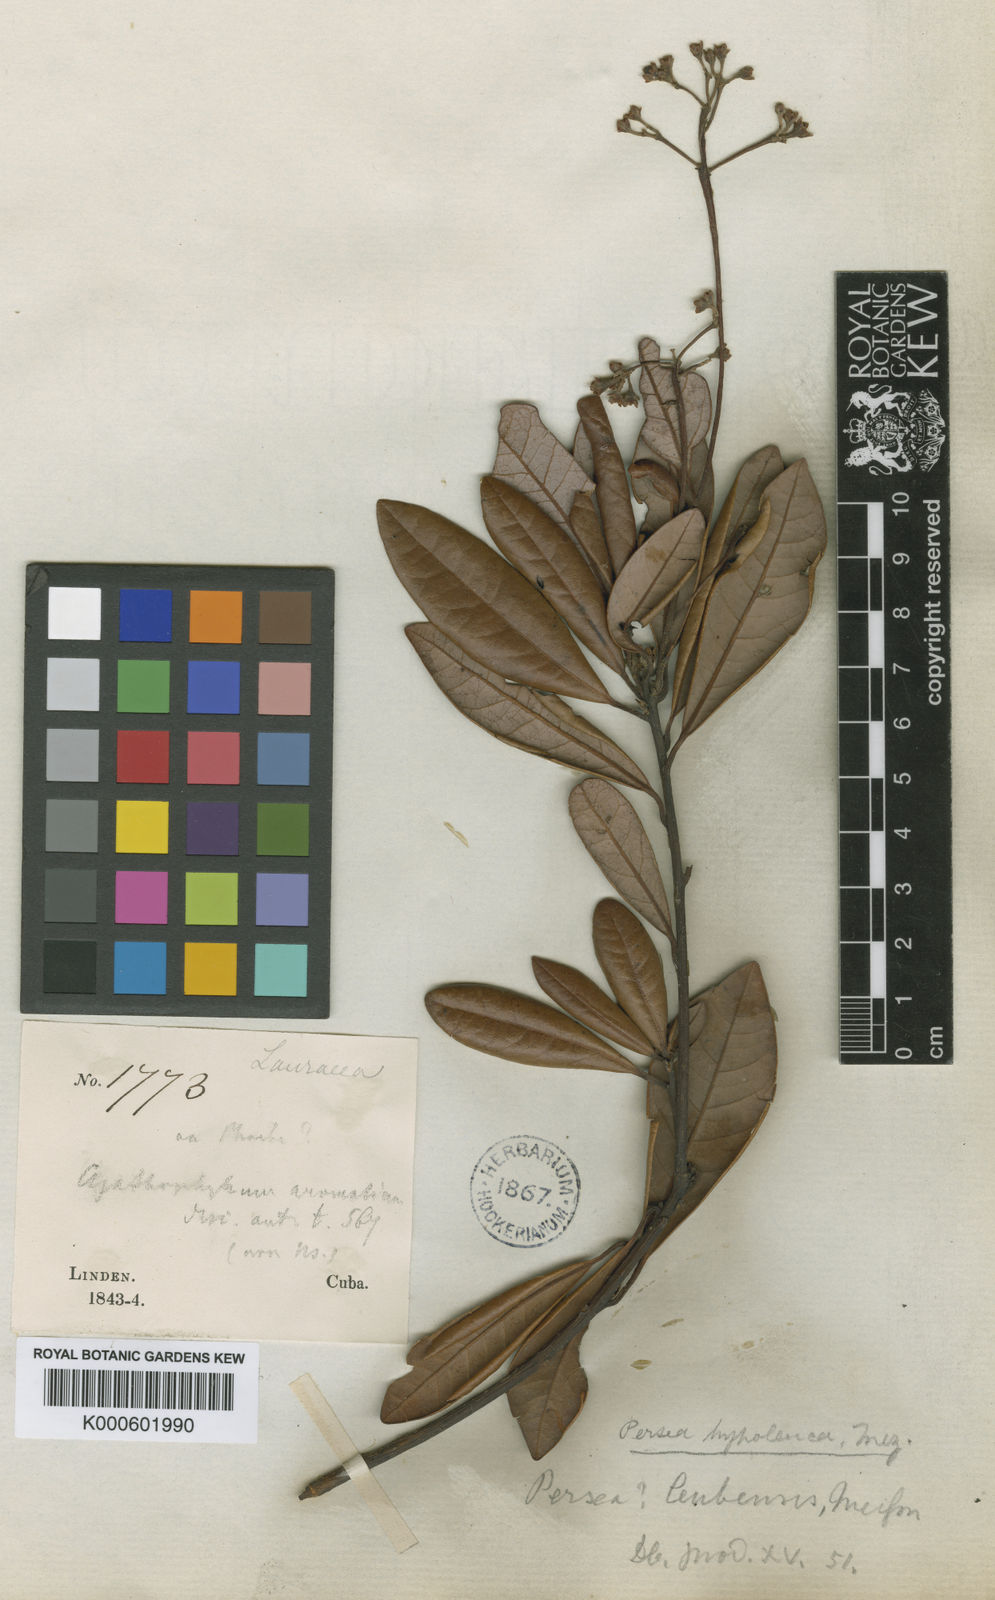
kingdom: Plantae
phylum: Tracheophyta
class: Magnoliopsida
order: Laurales
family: Lauraceae
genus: Persea
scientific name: Persea hypoleuca
